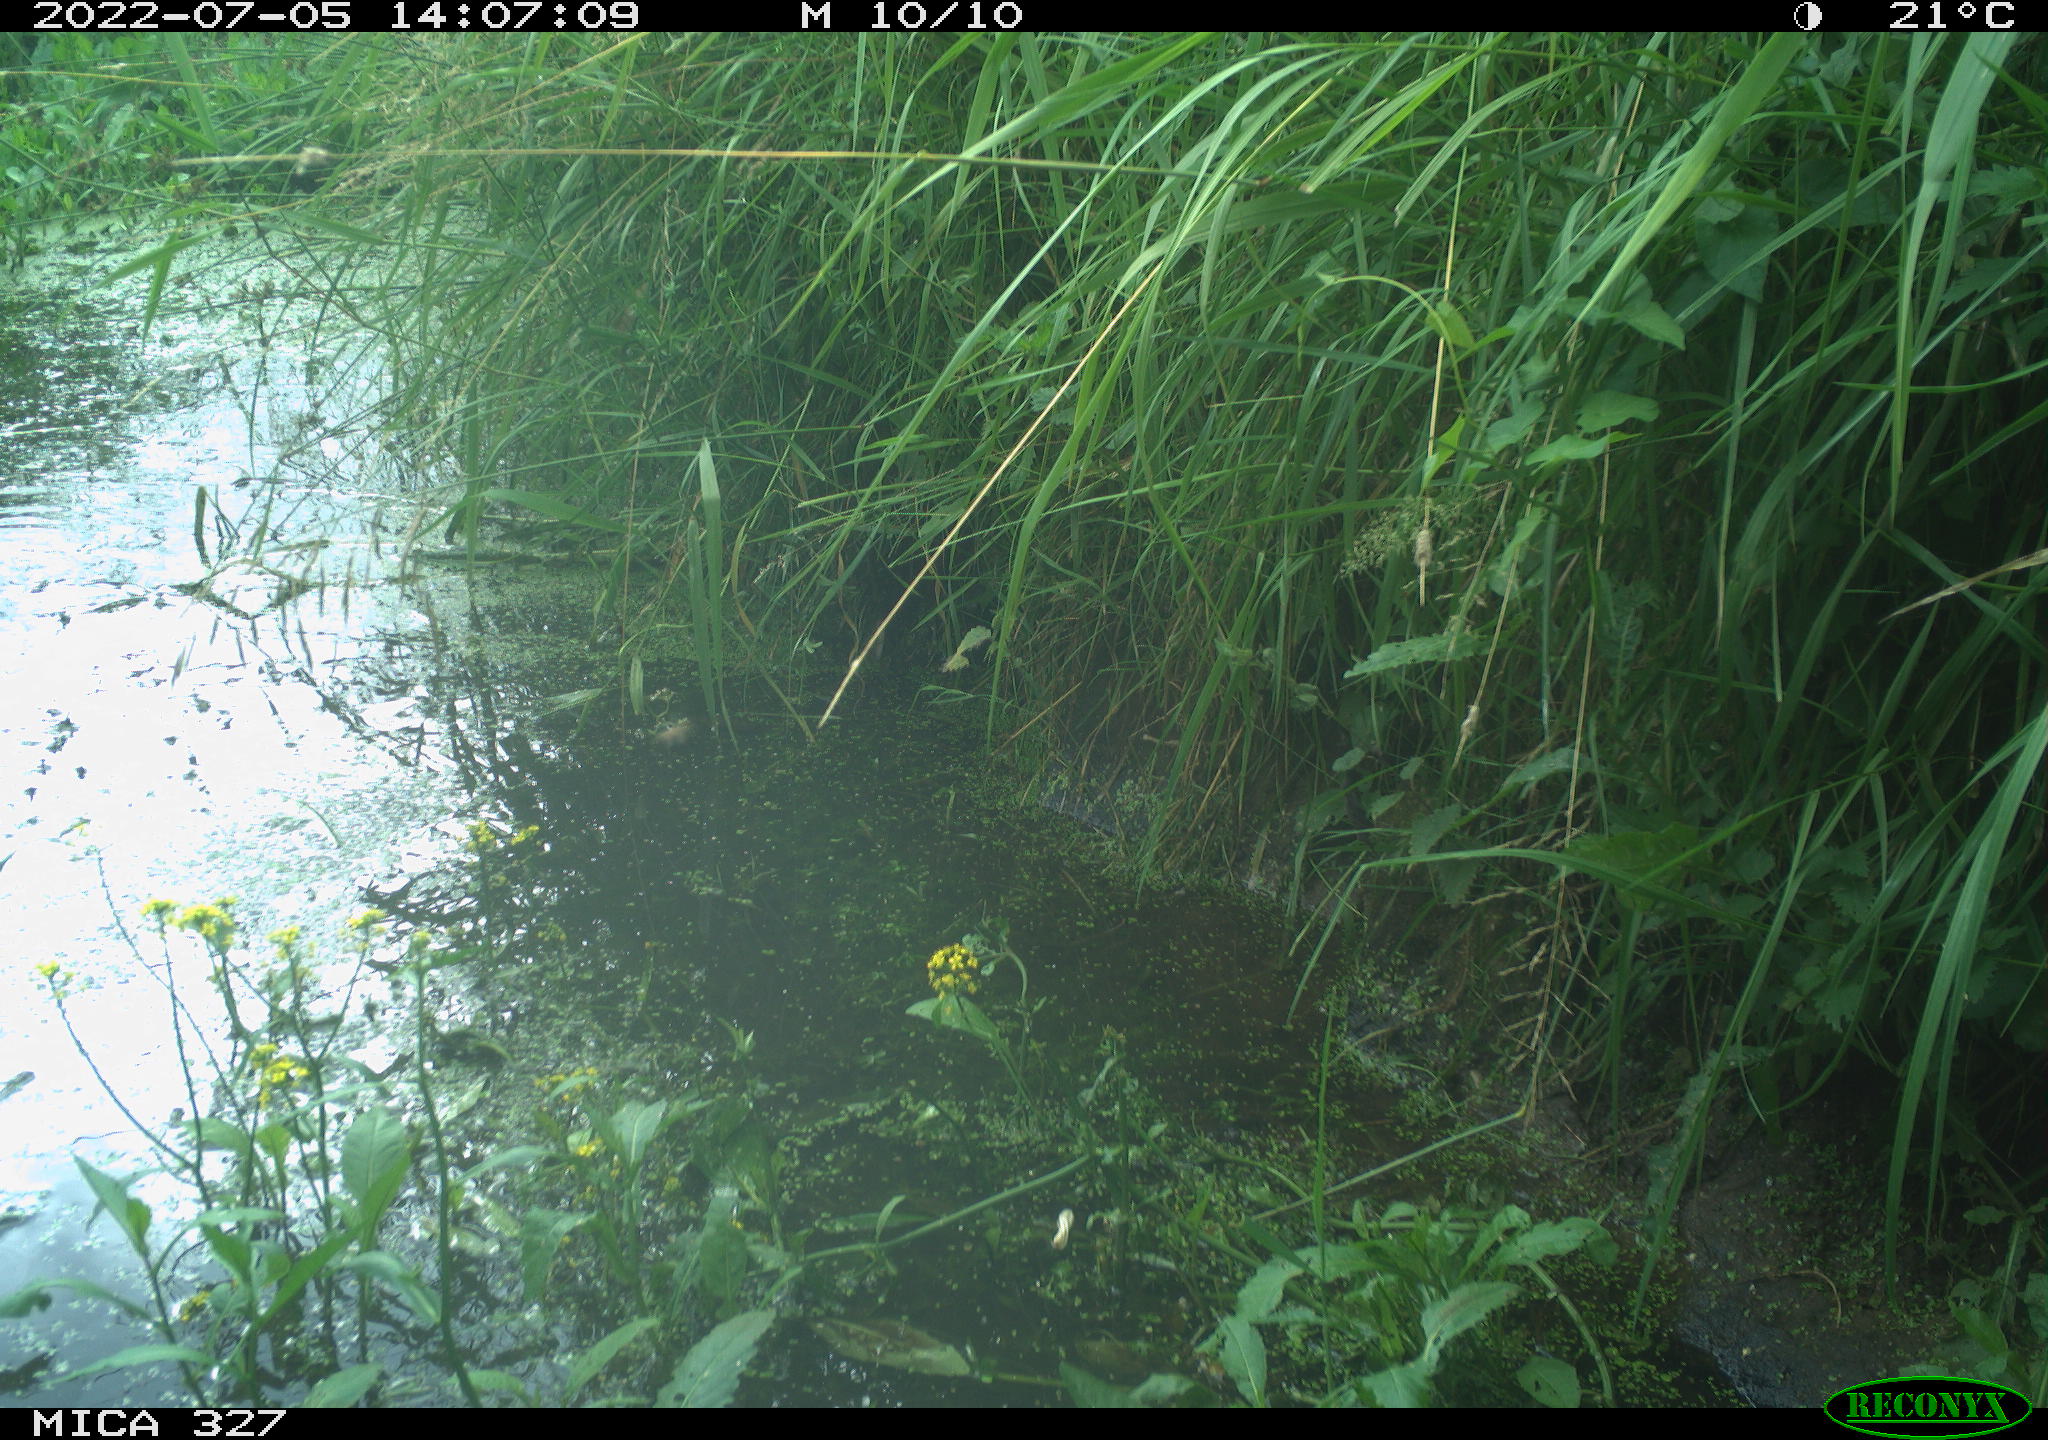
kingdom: Animalia
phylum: Chordata
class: Aves
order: Gruiformes
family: Rallidae
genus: Gallinula
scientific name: Gallinula chloropus
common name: Common moorhen
